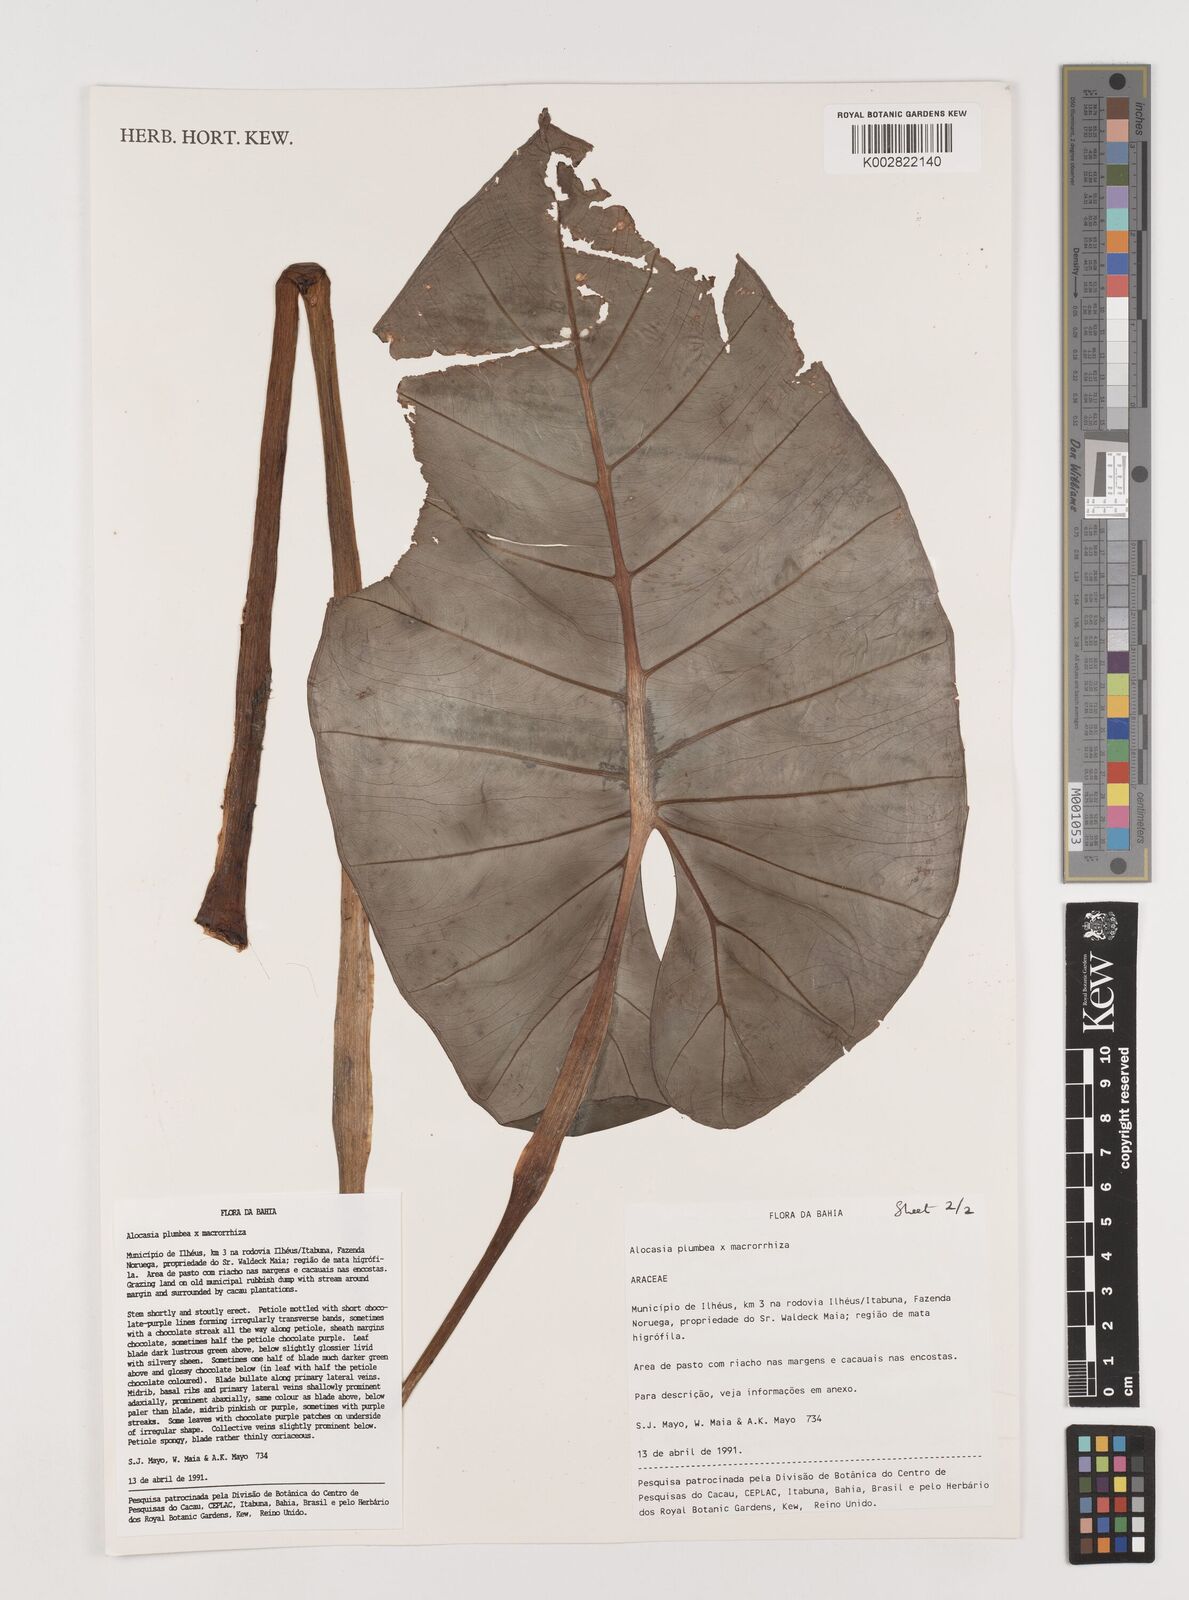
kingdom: Plantae
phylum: Tracheophyta
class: Liliopsida
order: Alismatales
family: Araceae
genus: Alocasia
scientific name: Alocasia macrorrhizos
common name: Giant taro
